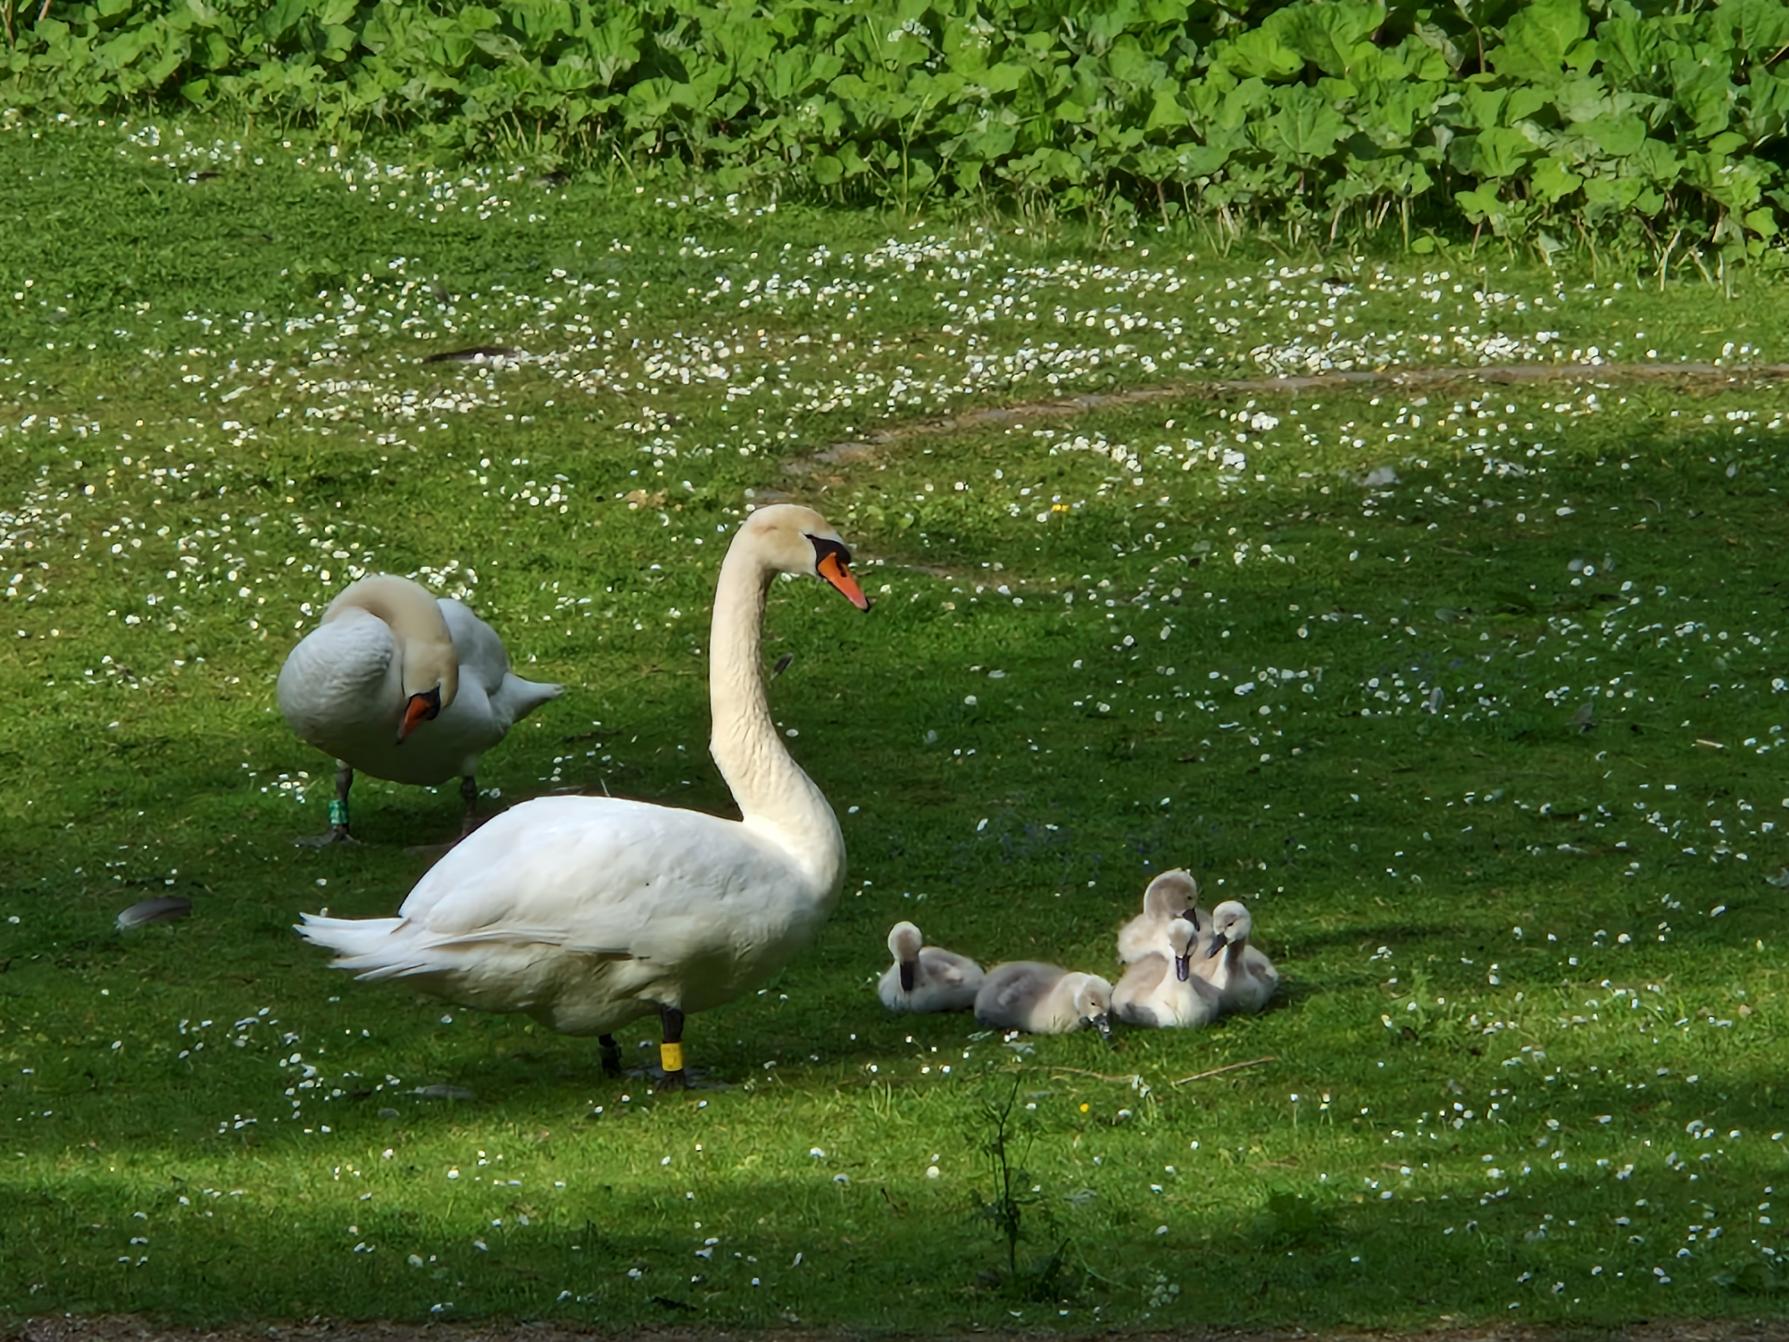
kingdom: Animalia
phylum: Chordata
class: Aves
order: Anseriformes
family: Anatidae
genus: Cygnus
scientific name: Cygnus olor
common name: Knopsvane
